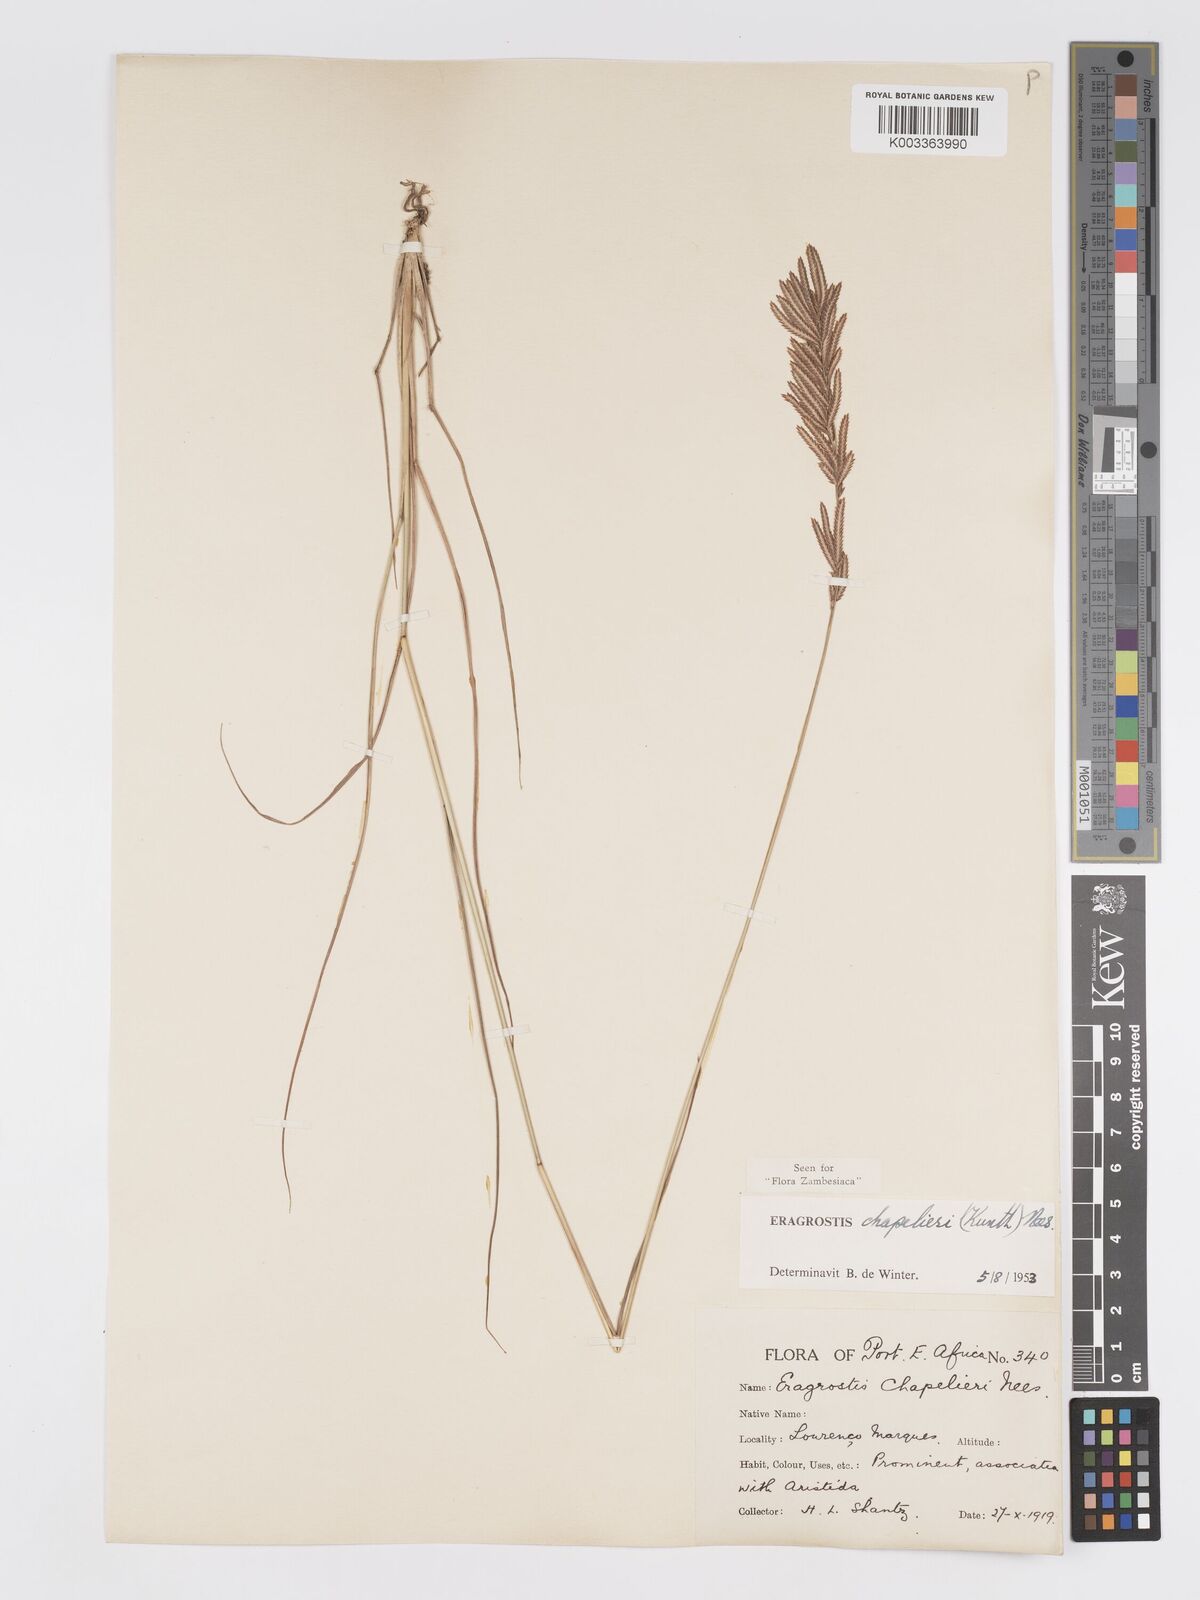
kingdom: Plantae
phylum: Tracheophyta
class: Liliopsida
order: Poales
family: Poaceae
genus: Eragrostis
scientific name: Eragrostis chapelieri
